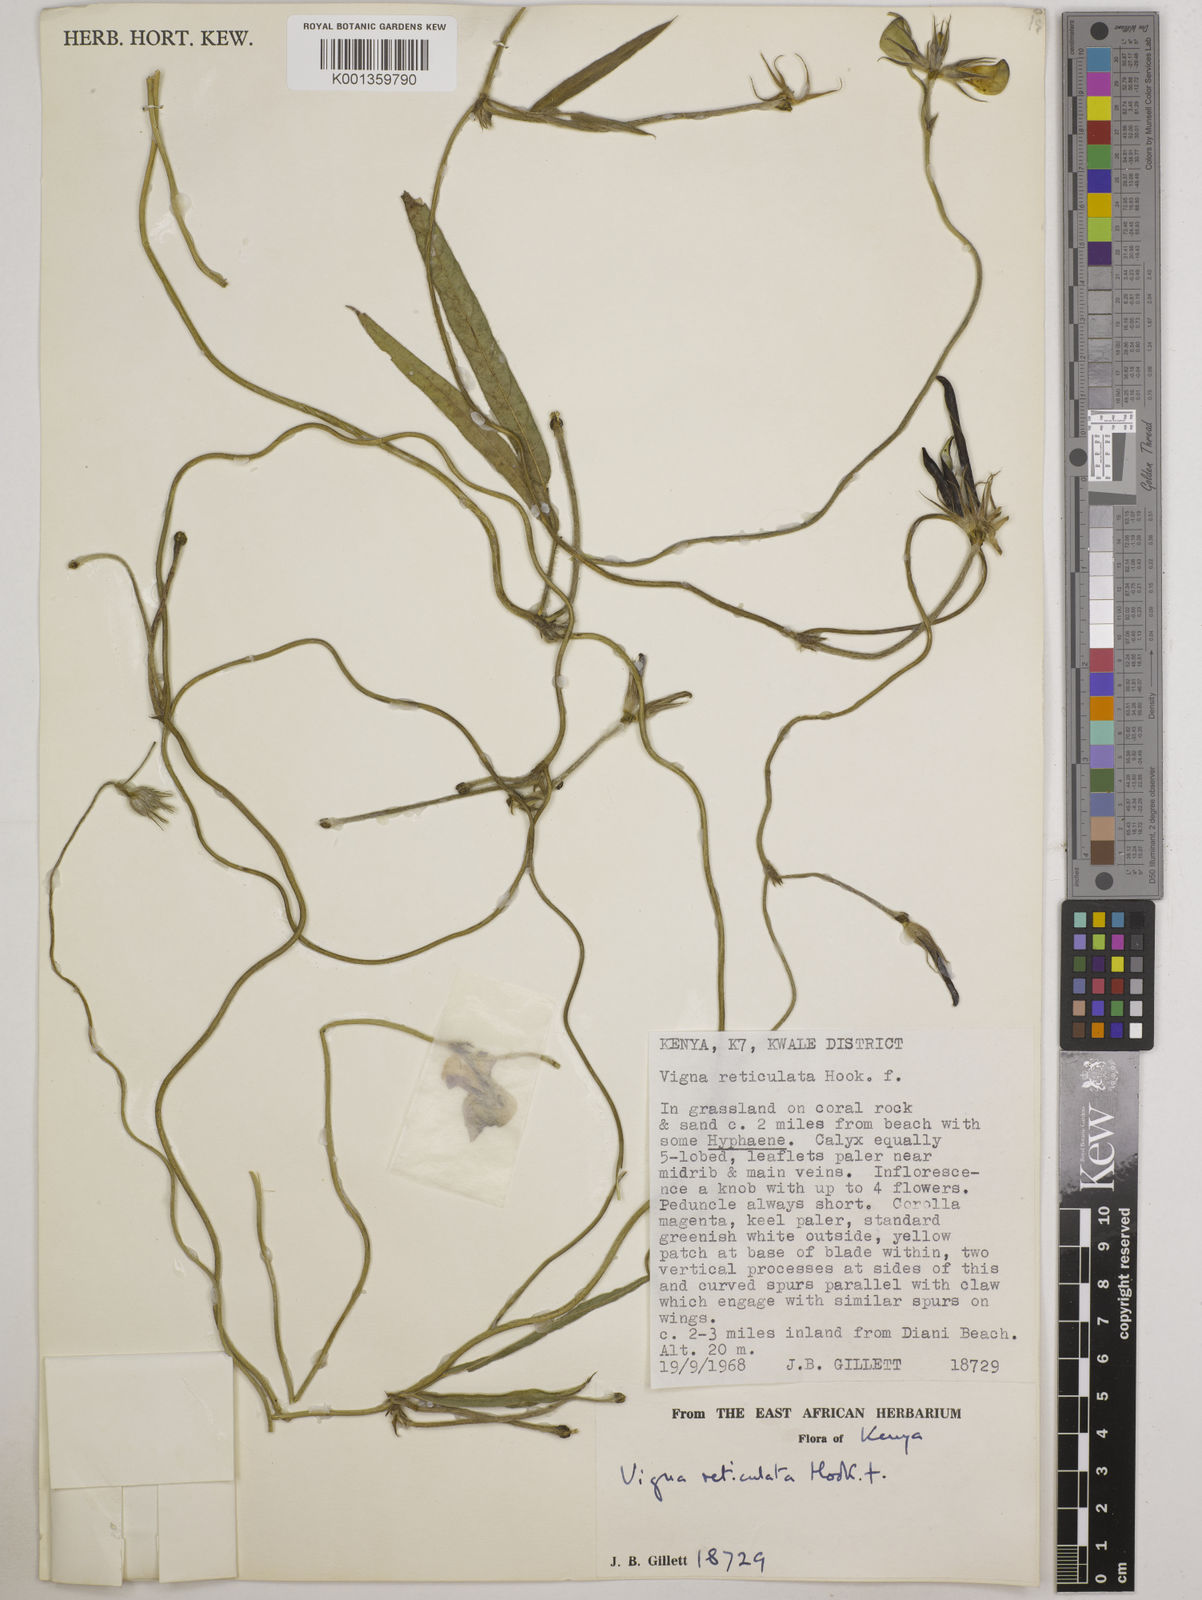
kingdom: Plantae
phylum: Tracheophyta
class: Magnoliopsida
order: Fabales
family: Fabaceae
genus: Vigna
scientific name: Vigna reticulata
